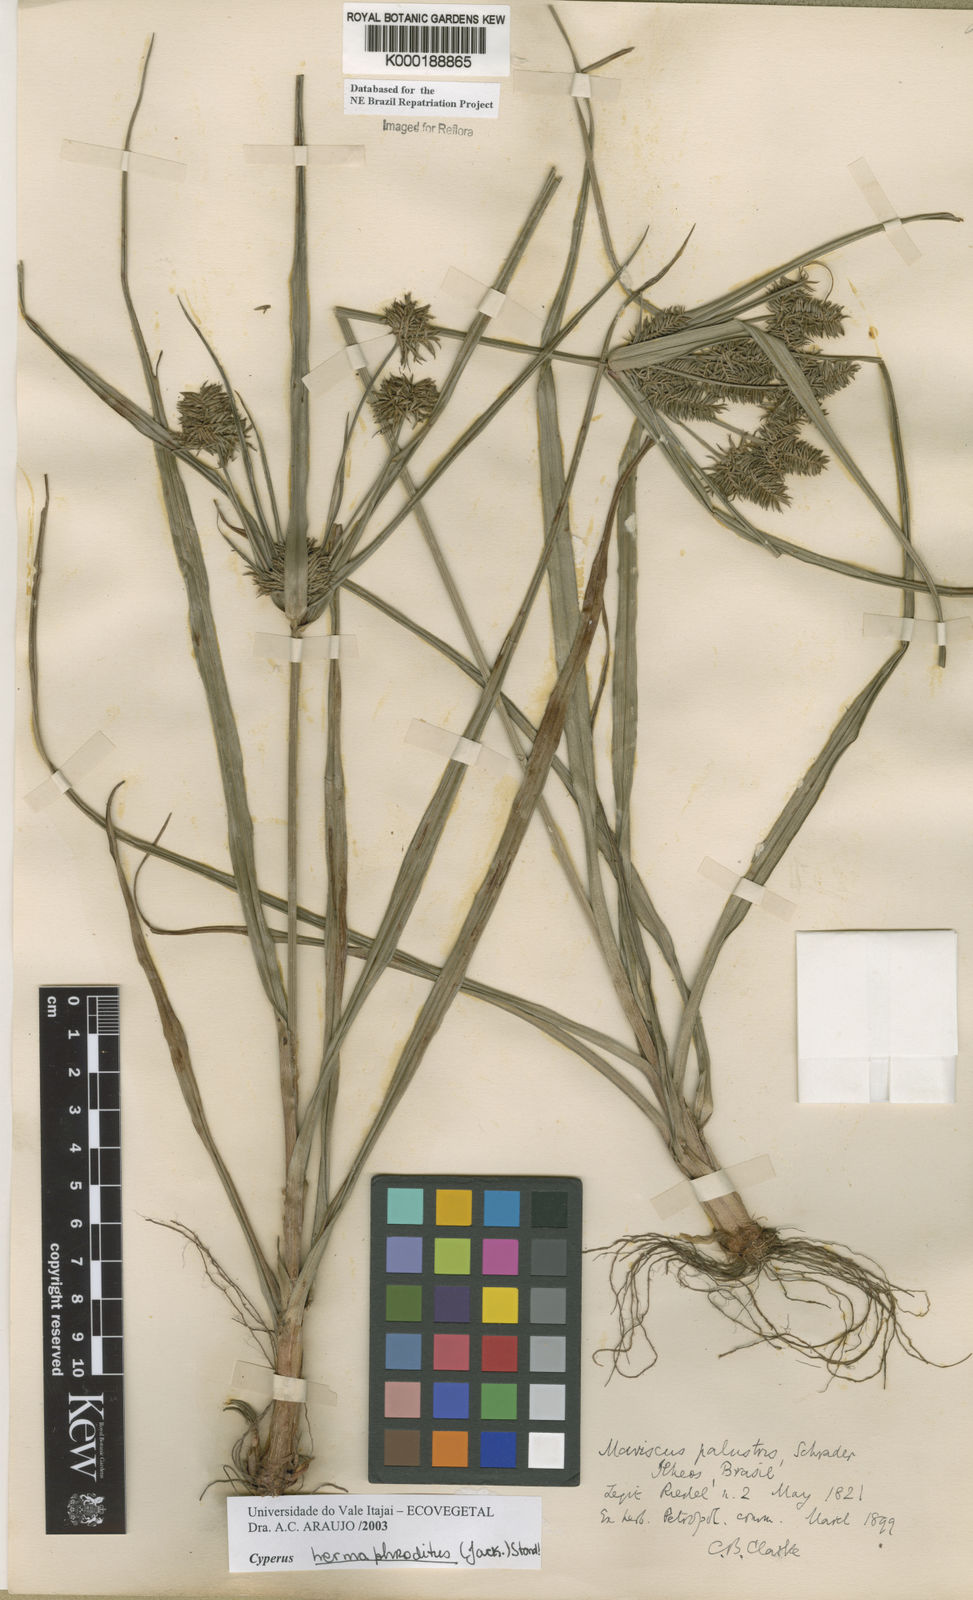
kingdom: Plantae
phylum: Tracheophyta
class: Liliopsida
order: Poales
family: Cyperaceae
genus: Cyperus
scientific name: Cyperus hermaphroditus
